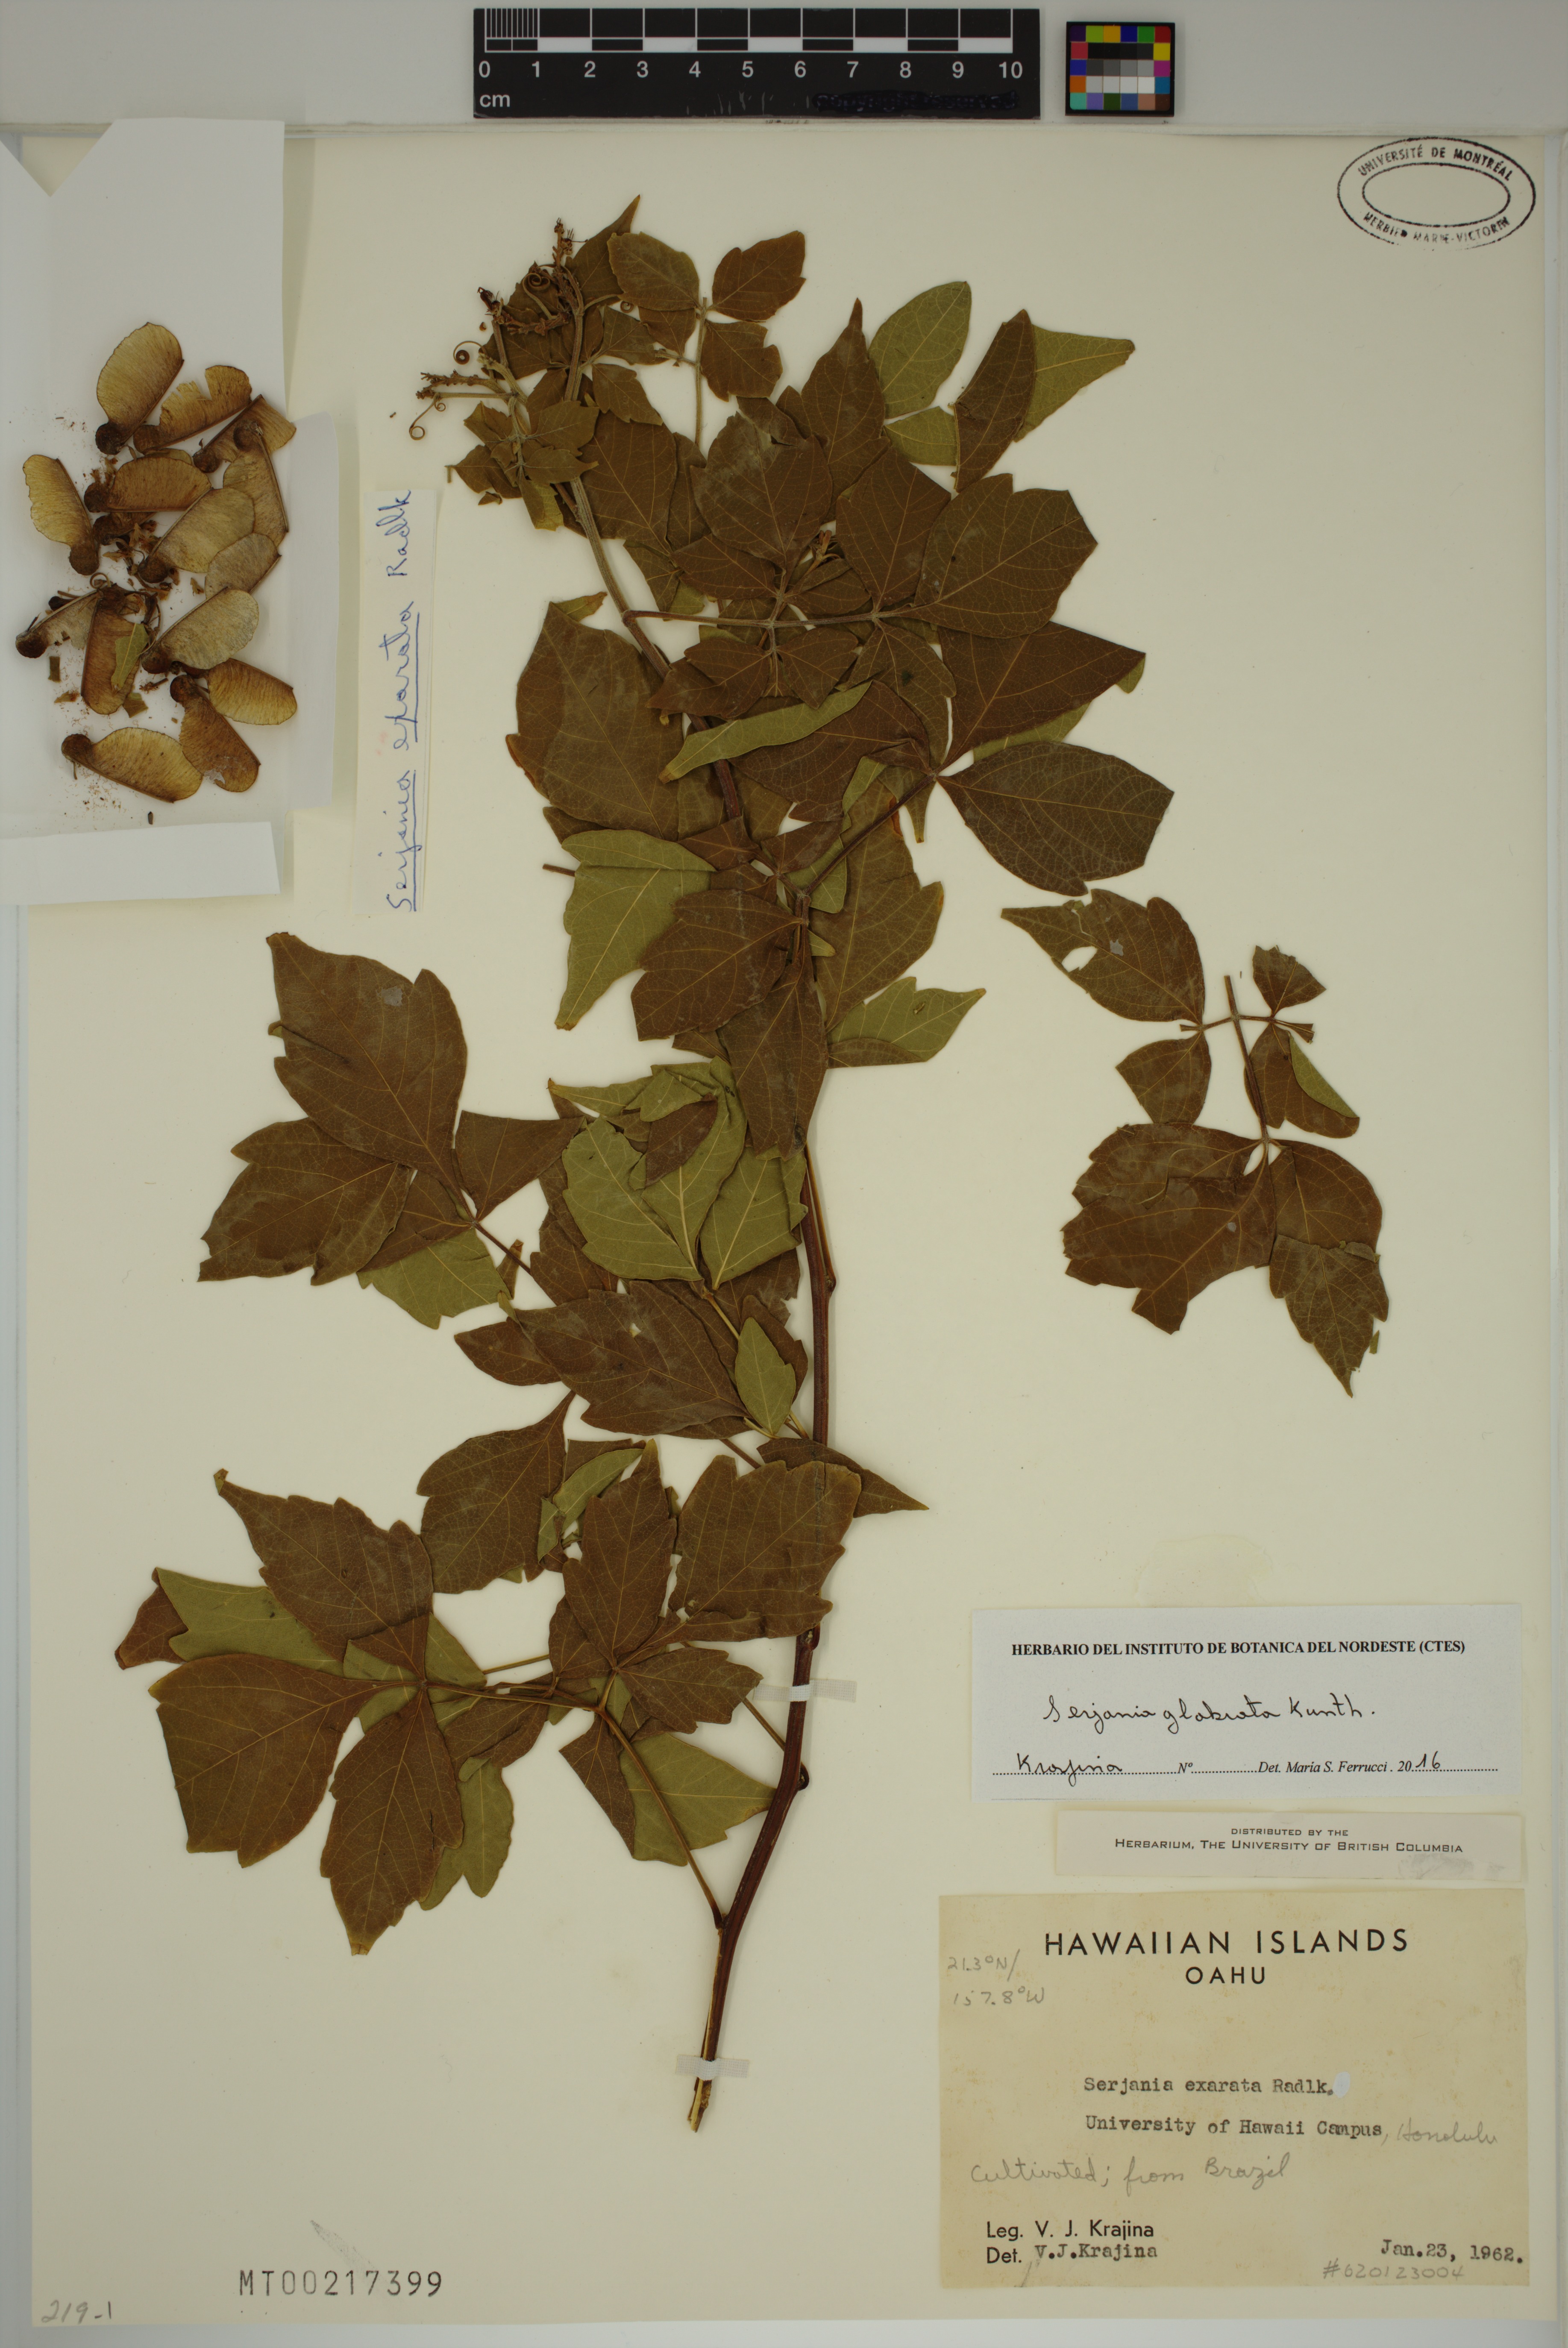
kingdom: Plantae
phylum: Tracheophyta
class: Magnoliopsida
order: Sapindales
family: Sapindaceae
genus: Serjania
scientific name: Serjania glabrata
